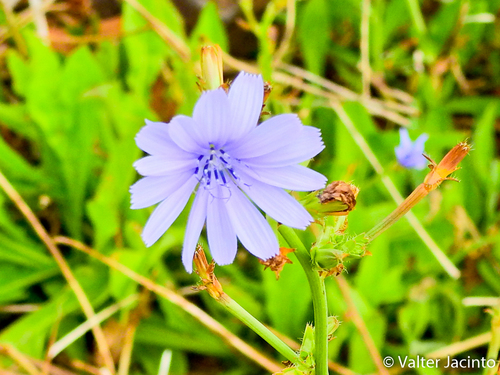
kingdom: Plantae
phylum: Tracheophyta
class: Magnoliopsida
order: Asterales
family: Asteraceae
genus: Cichorium
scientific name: Cichorium intybus
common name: Chicory
